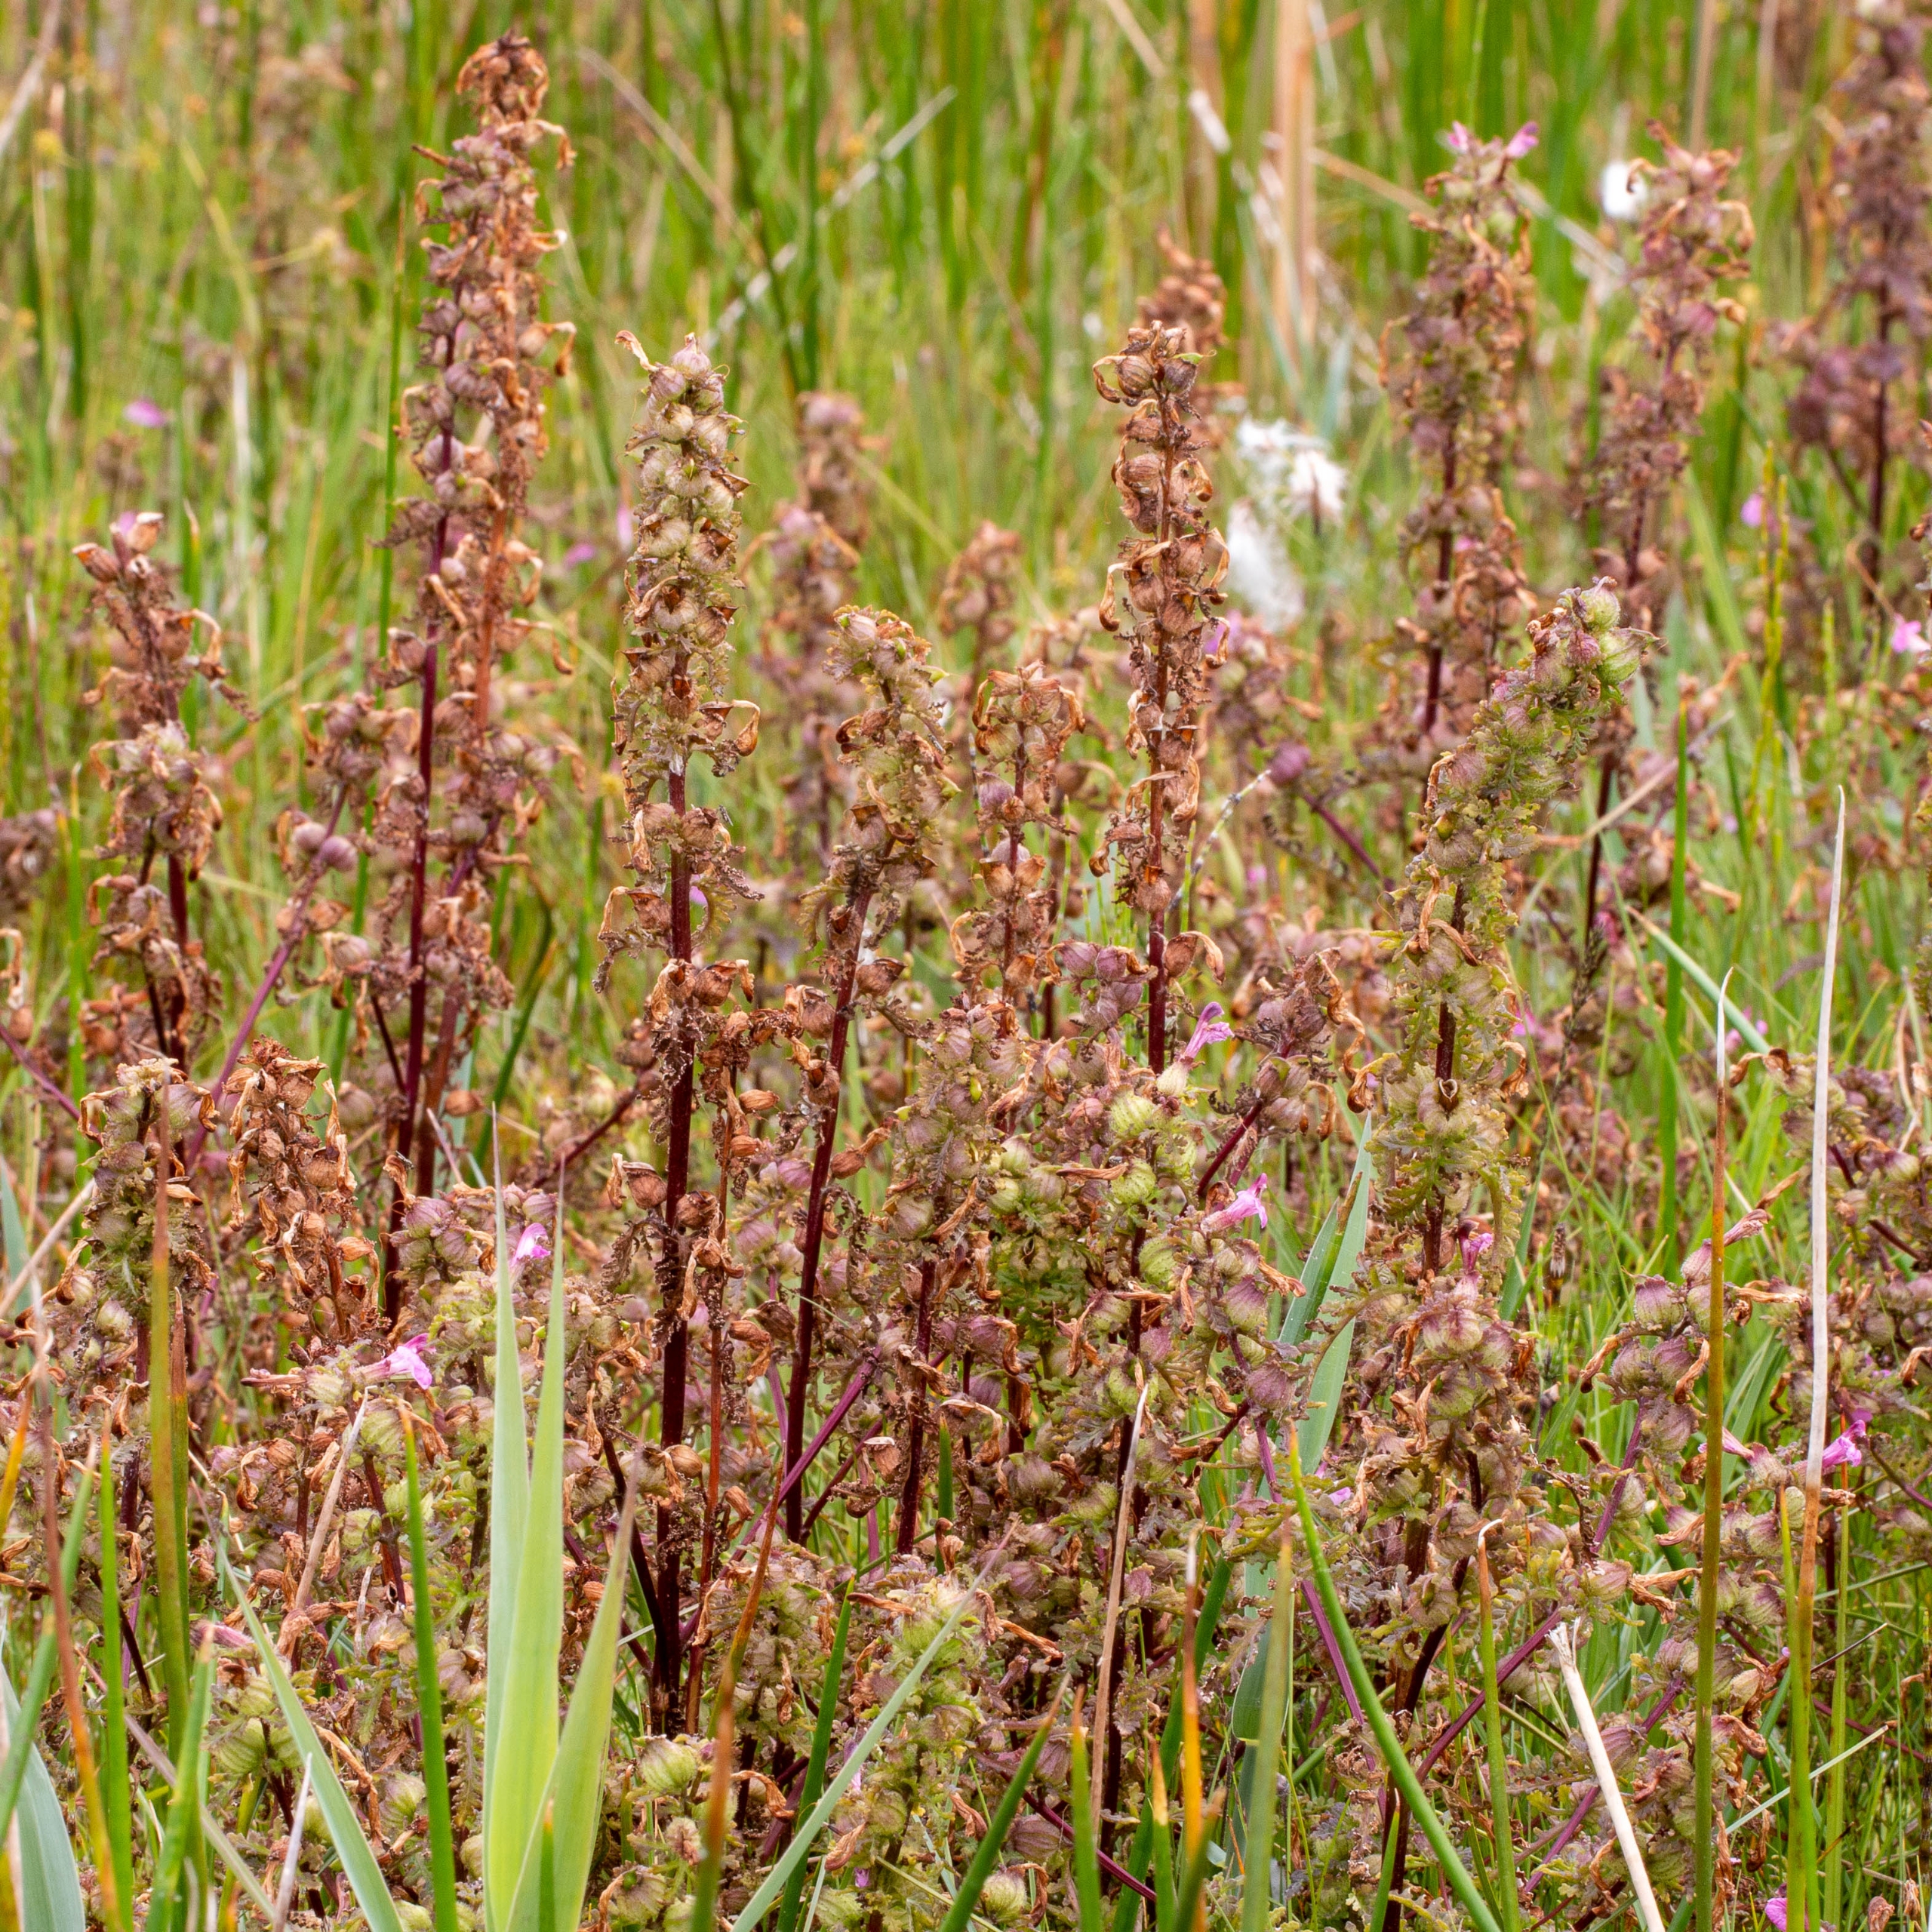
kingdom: Plantae
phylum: Tracheophyta
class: Magnoliopsida
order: Lamiales
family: Orobanchaceae
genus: Pedicularis
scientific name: Pedicularis palustris
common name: Eng-troldurt
